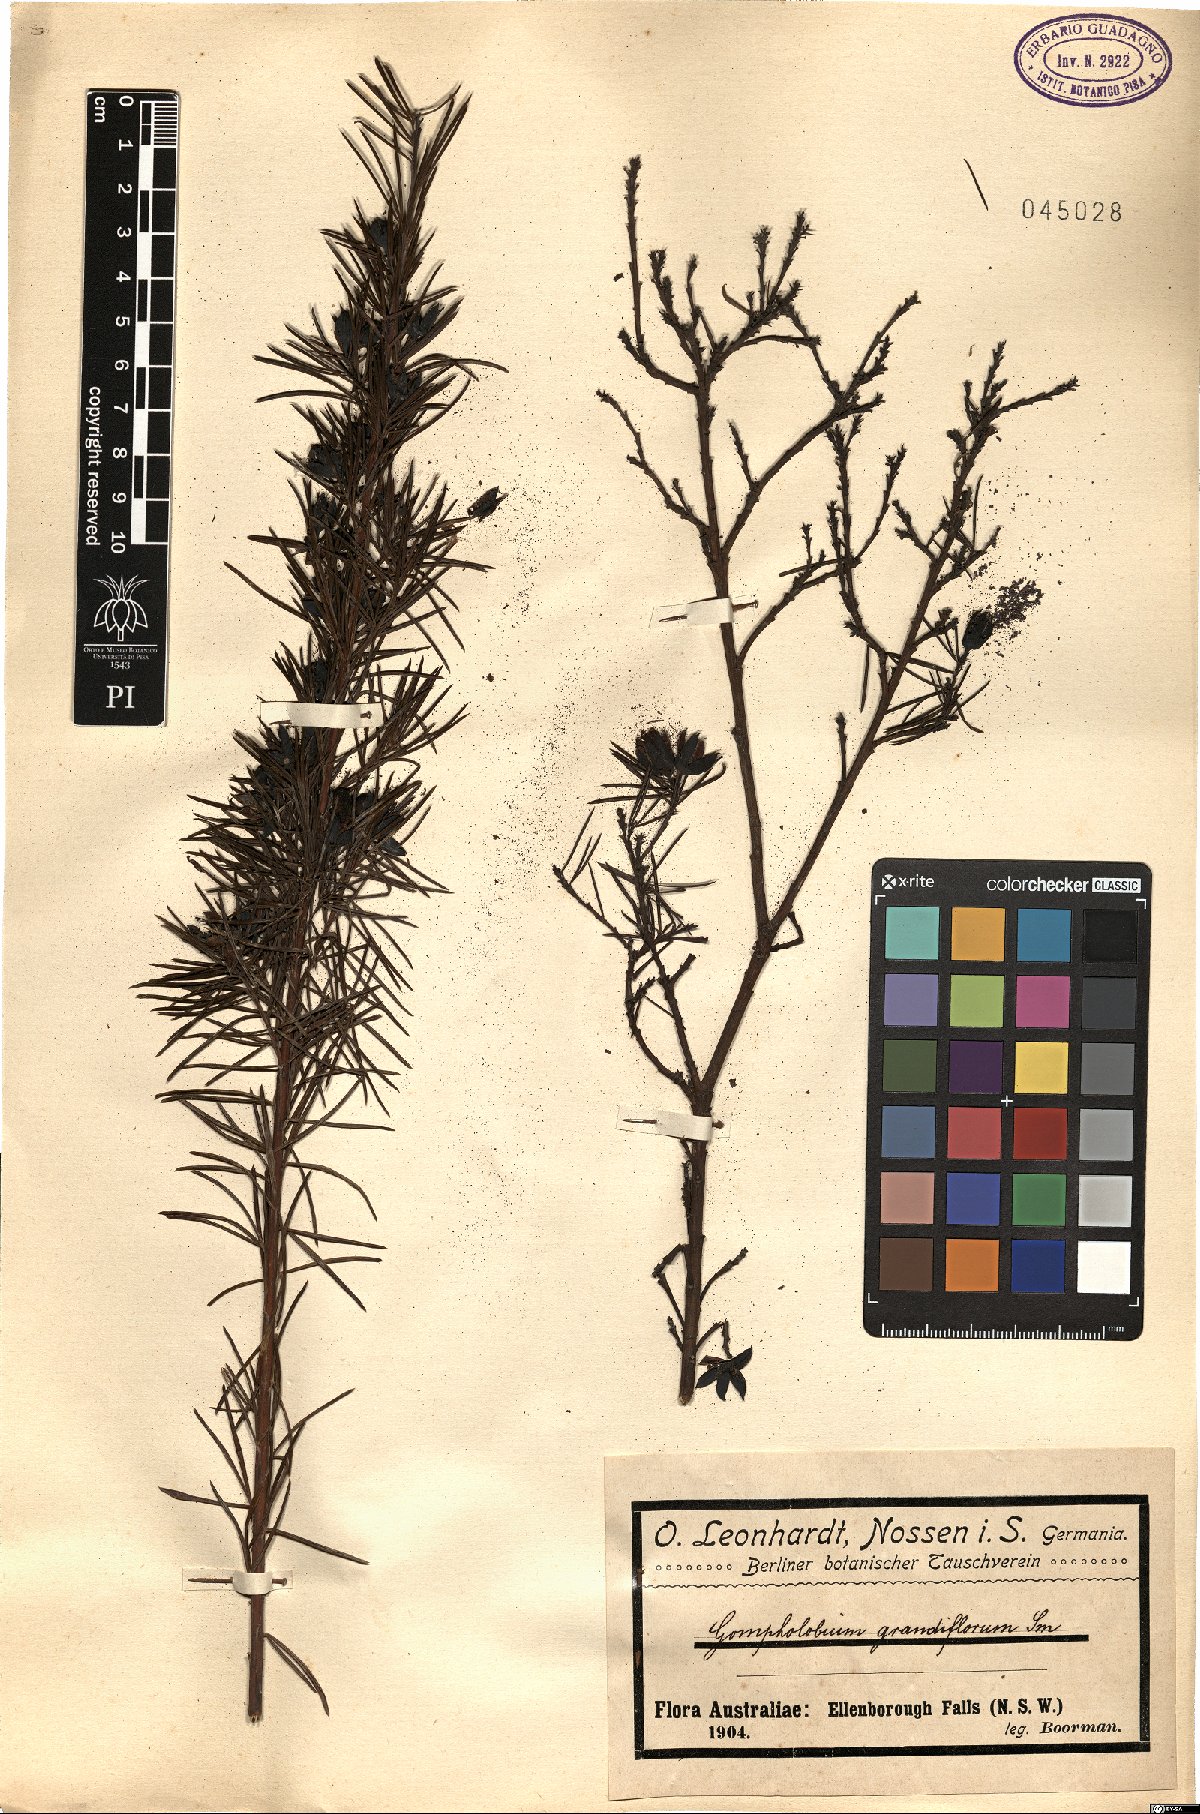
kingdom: Plantae
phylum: Tracheophyta
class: Magnoliopsida
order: Fabales
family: Fabaceae
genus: Gompholobium
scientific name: Gompholobium grandiflorum
